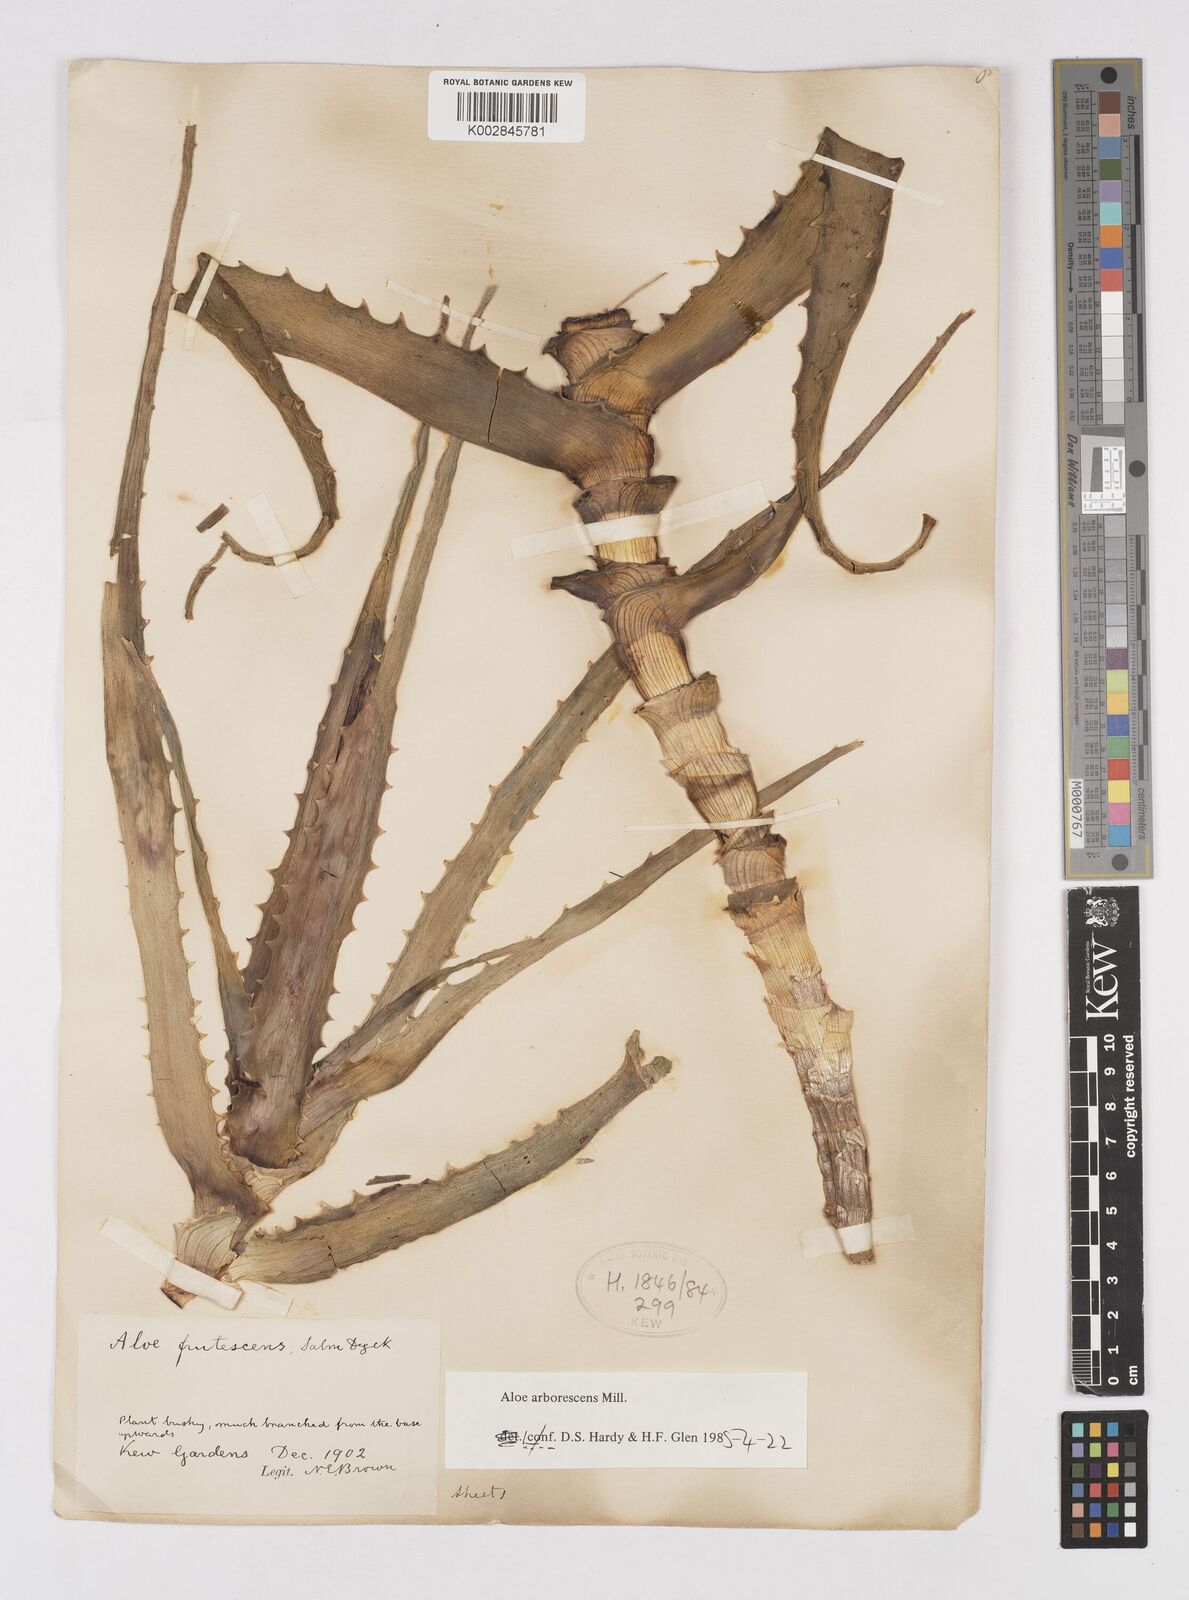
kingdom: Plantae
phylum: Tracheophyta
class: Liliopsida
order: Asparagales
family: Asphodelaceae
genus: Aloe
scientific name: Aloe arborescens
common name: Candelabra aloe
